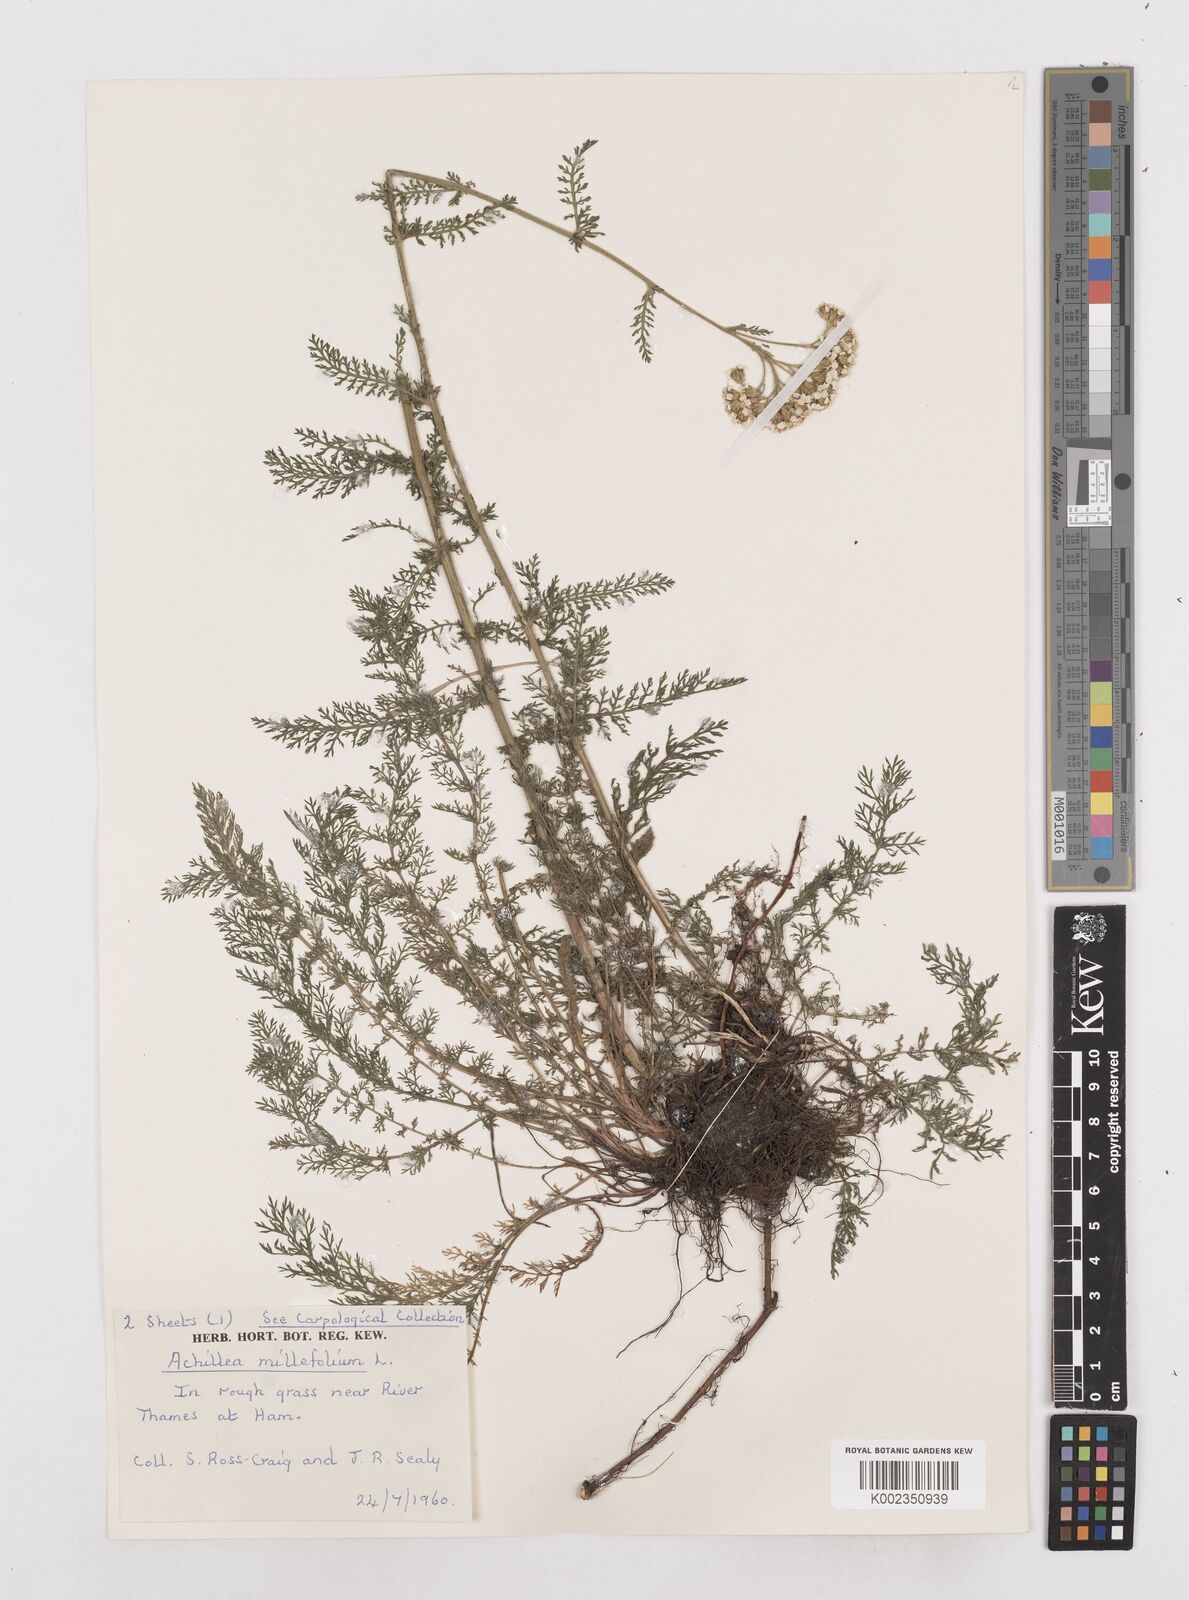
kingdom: Plantae
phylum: Tracheophyta
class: Magnoliopsida
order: Asterales
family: Asteraceae
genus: Achillea
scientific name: Achillea millefolium
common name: Yarrow
